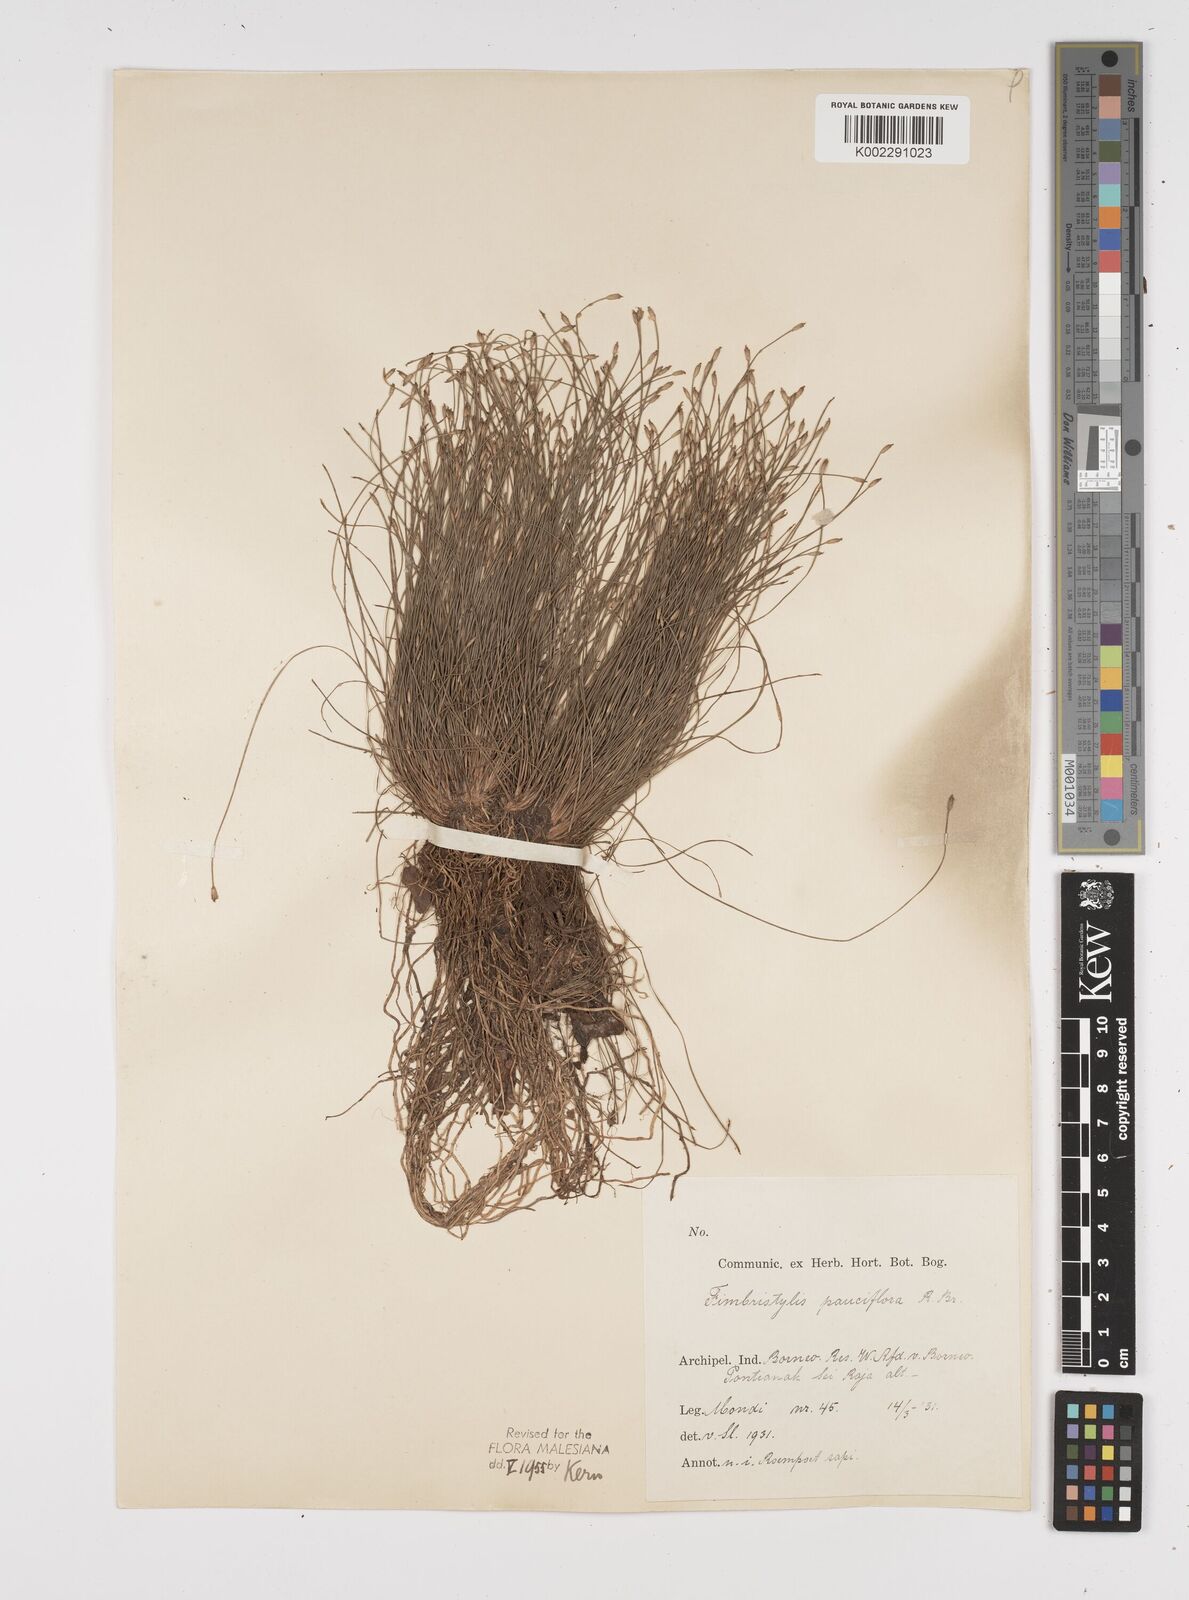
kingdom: Plantae
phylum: Tracheophyta
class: Liliopsida
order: Poales
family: Cyperaceae
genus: Fimbristylis
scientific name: Fimbristylis pauciflora
